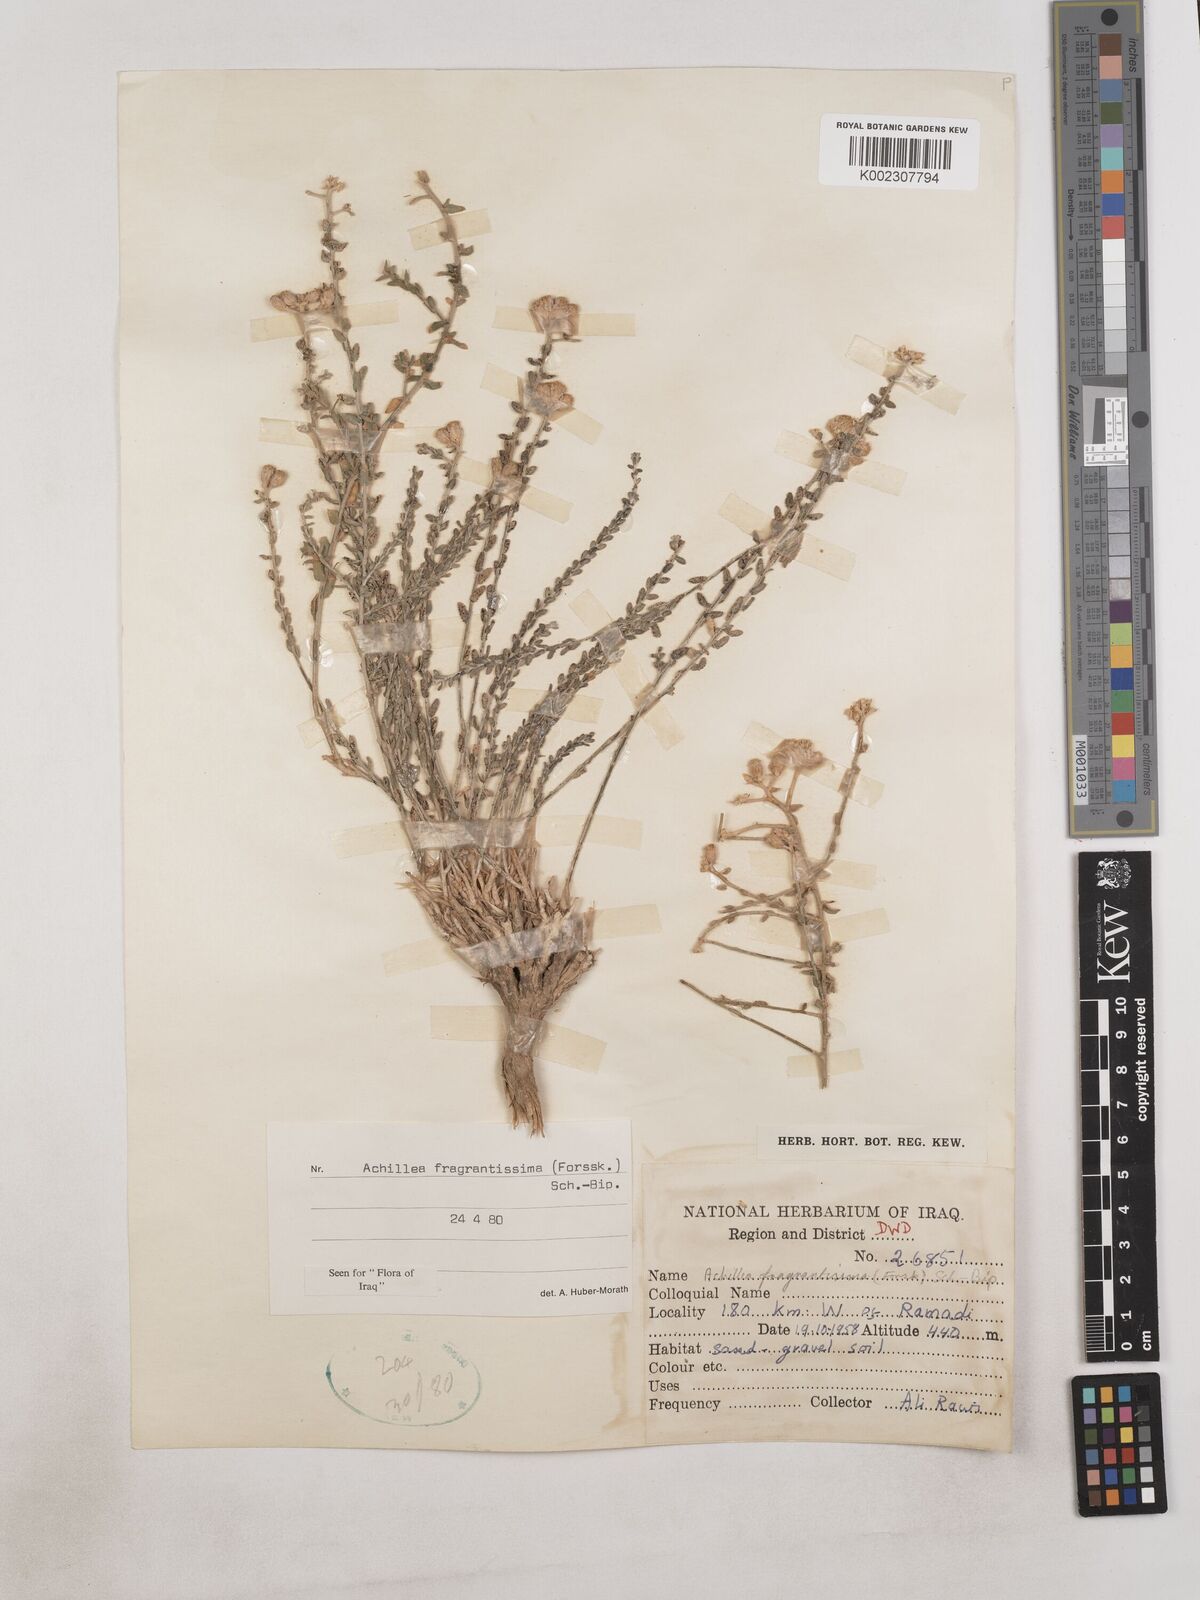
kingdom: Plantae
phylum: Tracheophyta
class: Magnoliopsida
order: Asterales
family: Asteraceae
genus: Achillea
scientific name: Achillea fragrantissima
